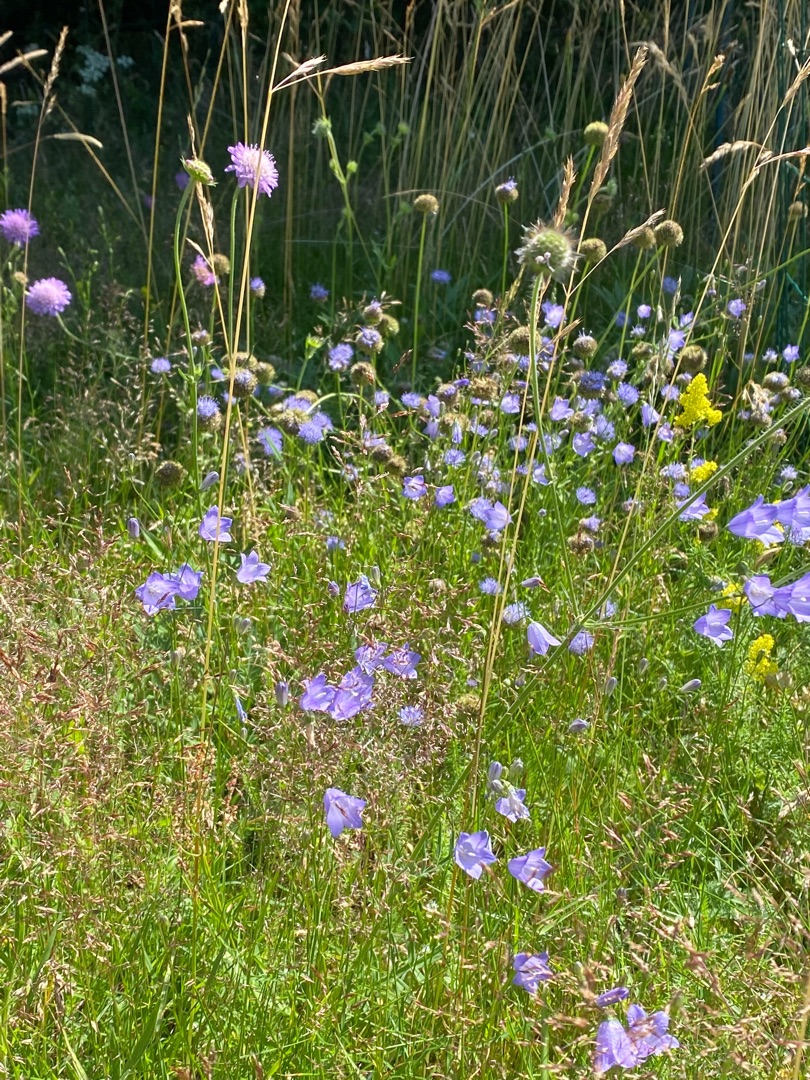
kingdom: Plantae
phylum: Tracheophyta
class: Magnoliopsida
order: Asterales
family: Campanulaceae
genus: Campanula
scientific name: Campanula rotundifolia
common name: Liden klokke
